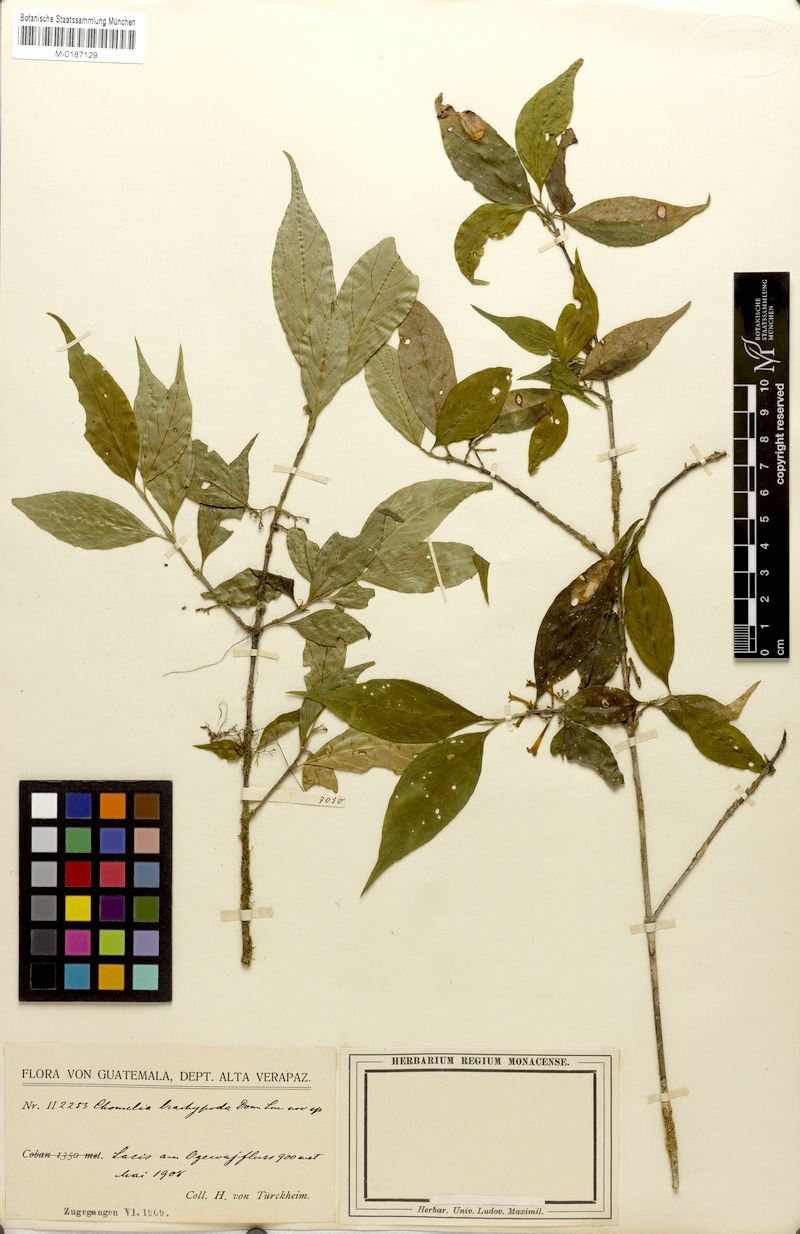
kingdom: Plantae
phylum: Tracheophyta
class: Magnoliopsida
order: Gentianales
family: Rubiaceae
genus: Chomelia
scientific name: Chomelia brachypoda
